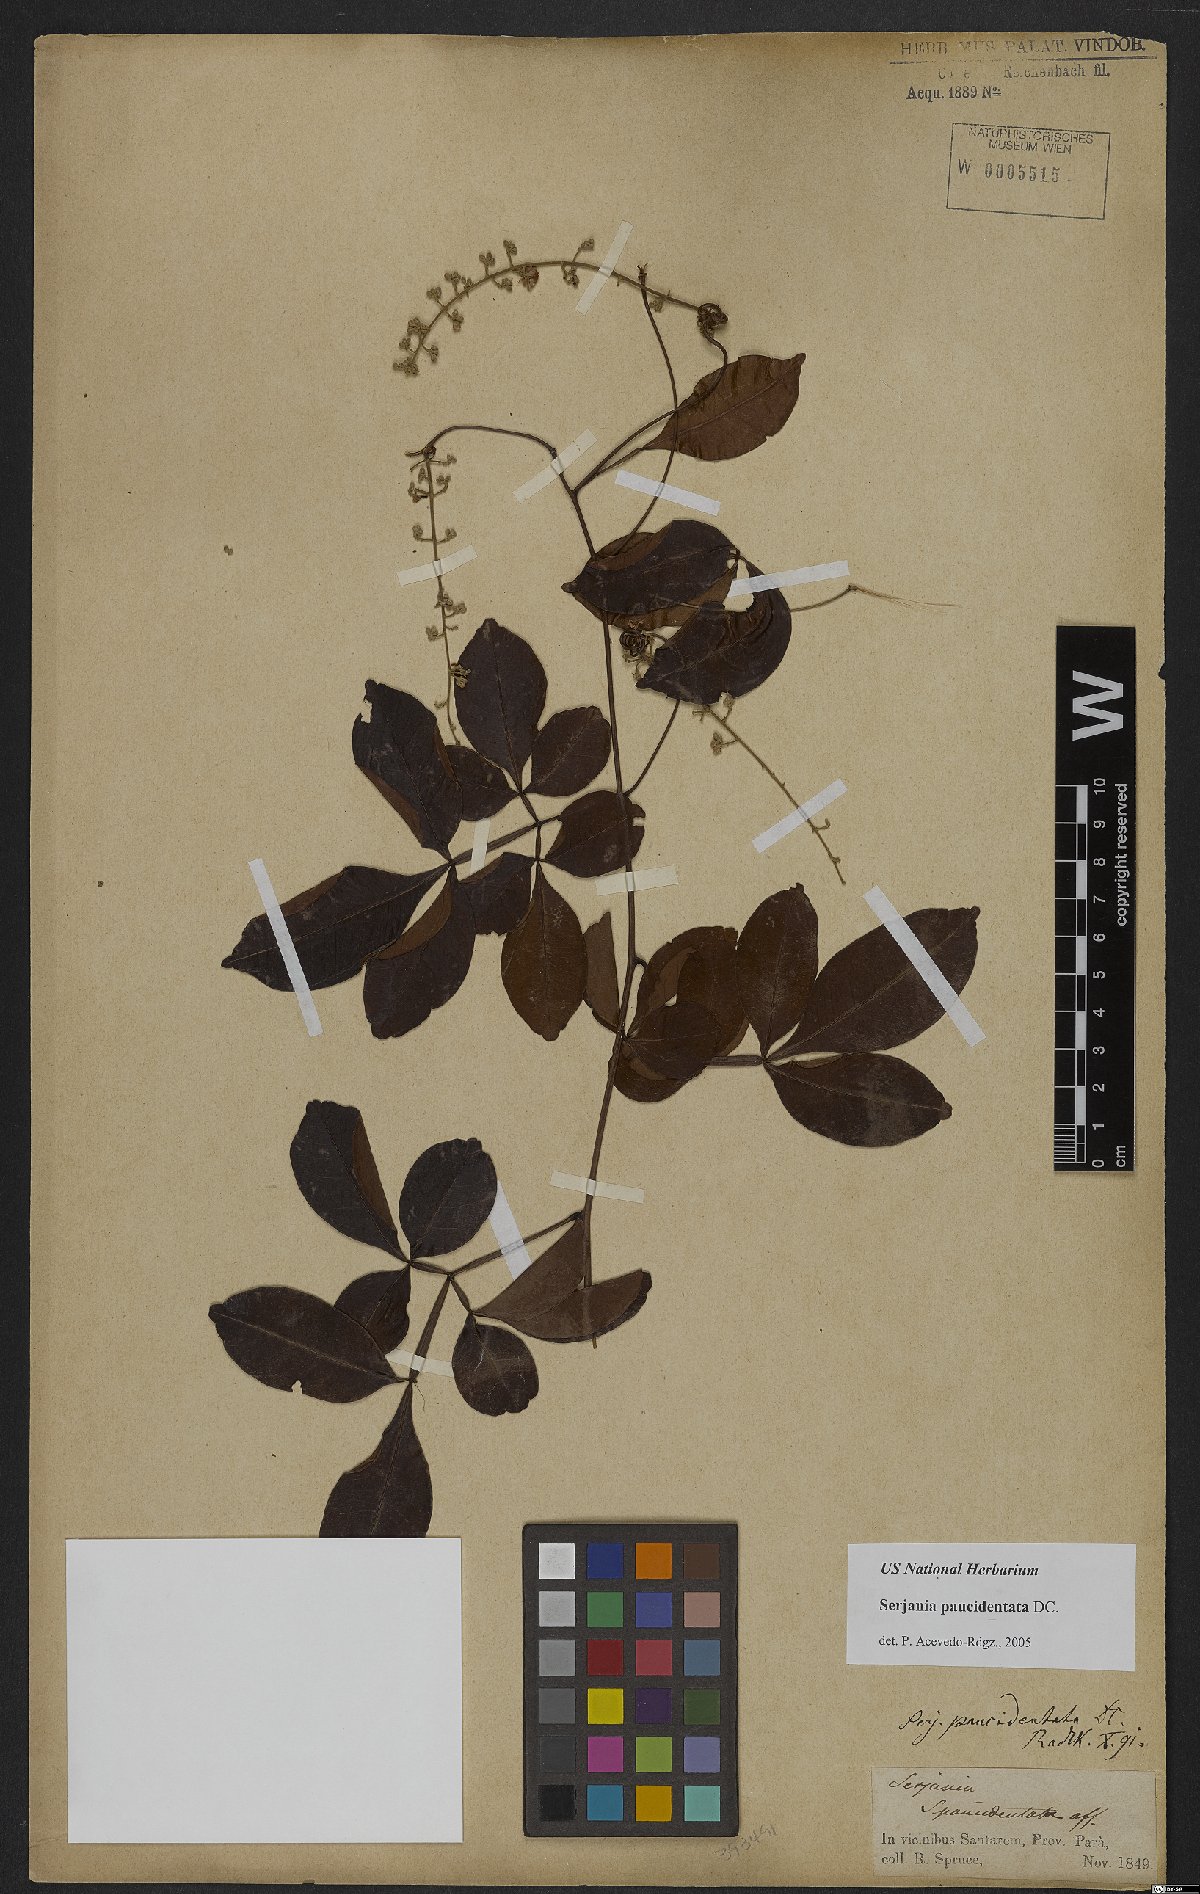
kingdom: Plantae
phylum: Tracheophyta
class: Magnoliopsida
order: Sapindales
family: Sapindaceae
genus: Serjania
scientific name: Serjania paucidentata
